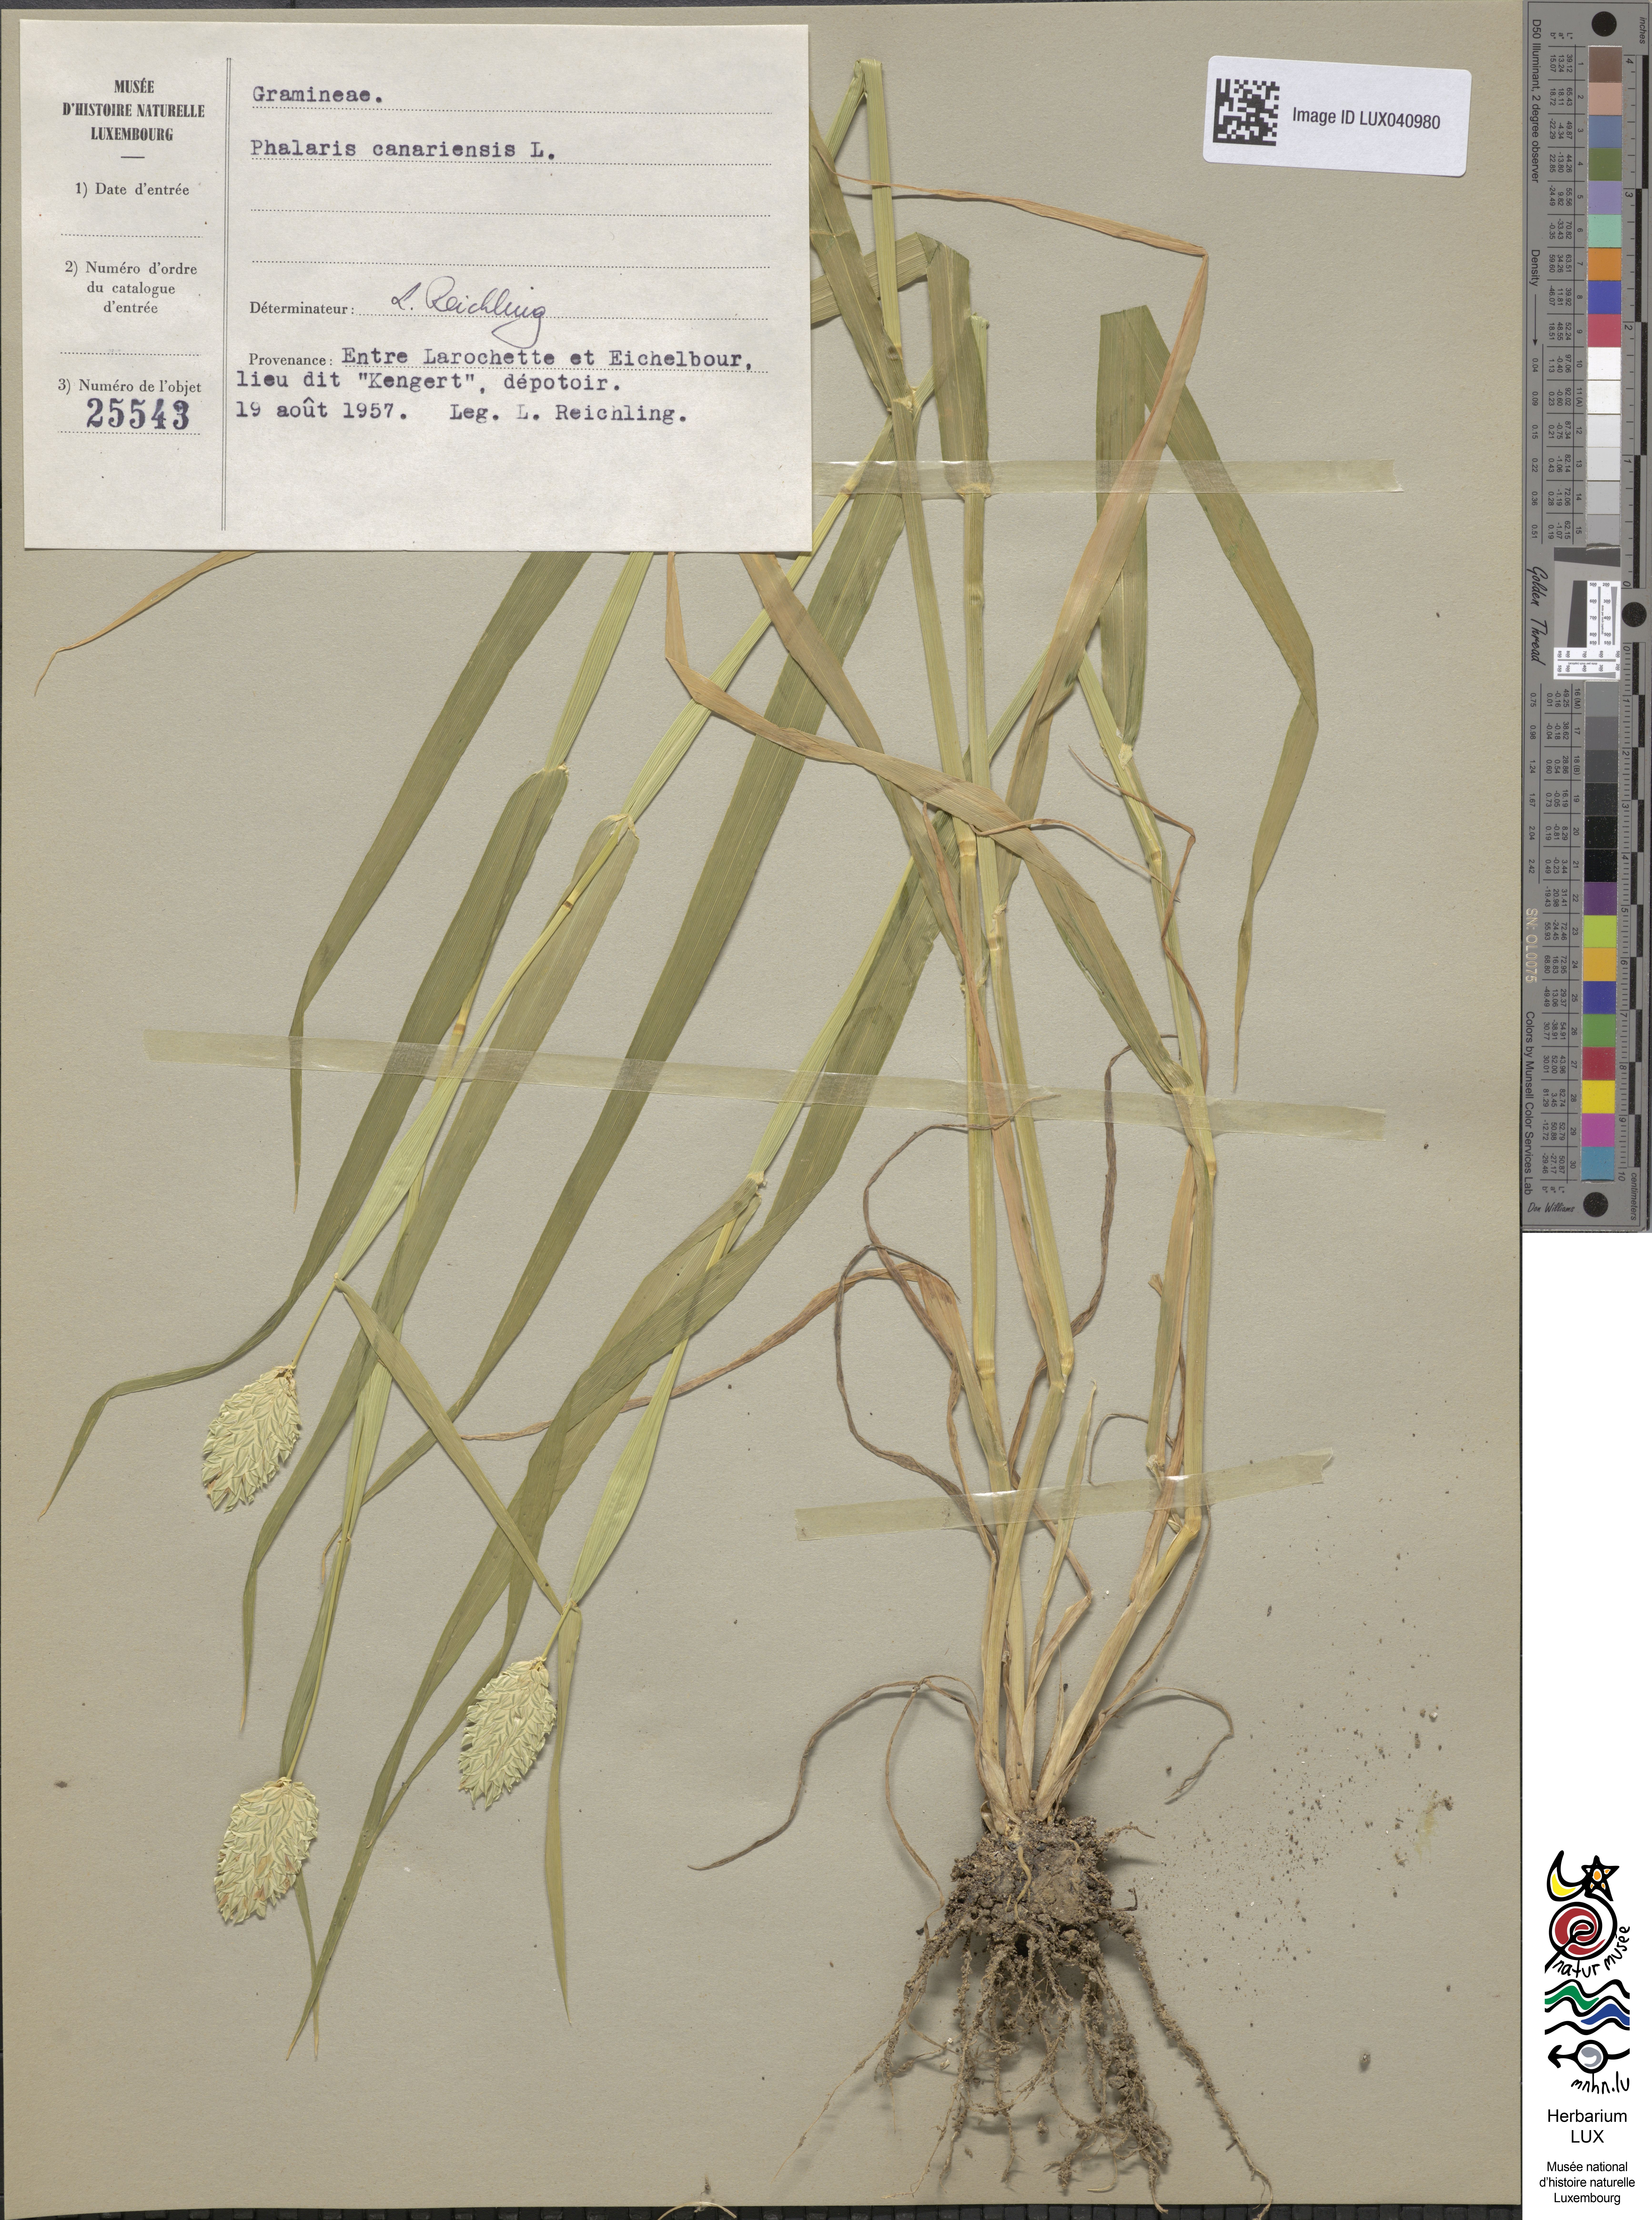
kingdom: Plantae
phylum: Tracheophyta
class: Liliopsida
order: Poales
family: Poaceae
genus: Phalaris
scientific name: Phalaris canariensis
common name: Annual canarygrass
